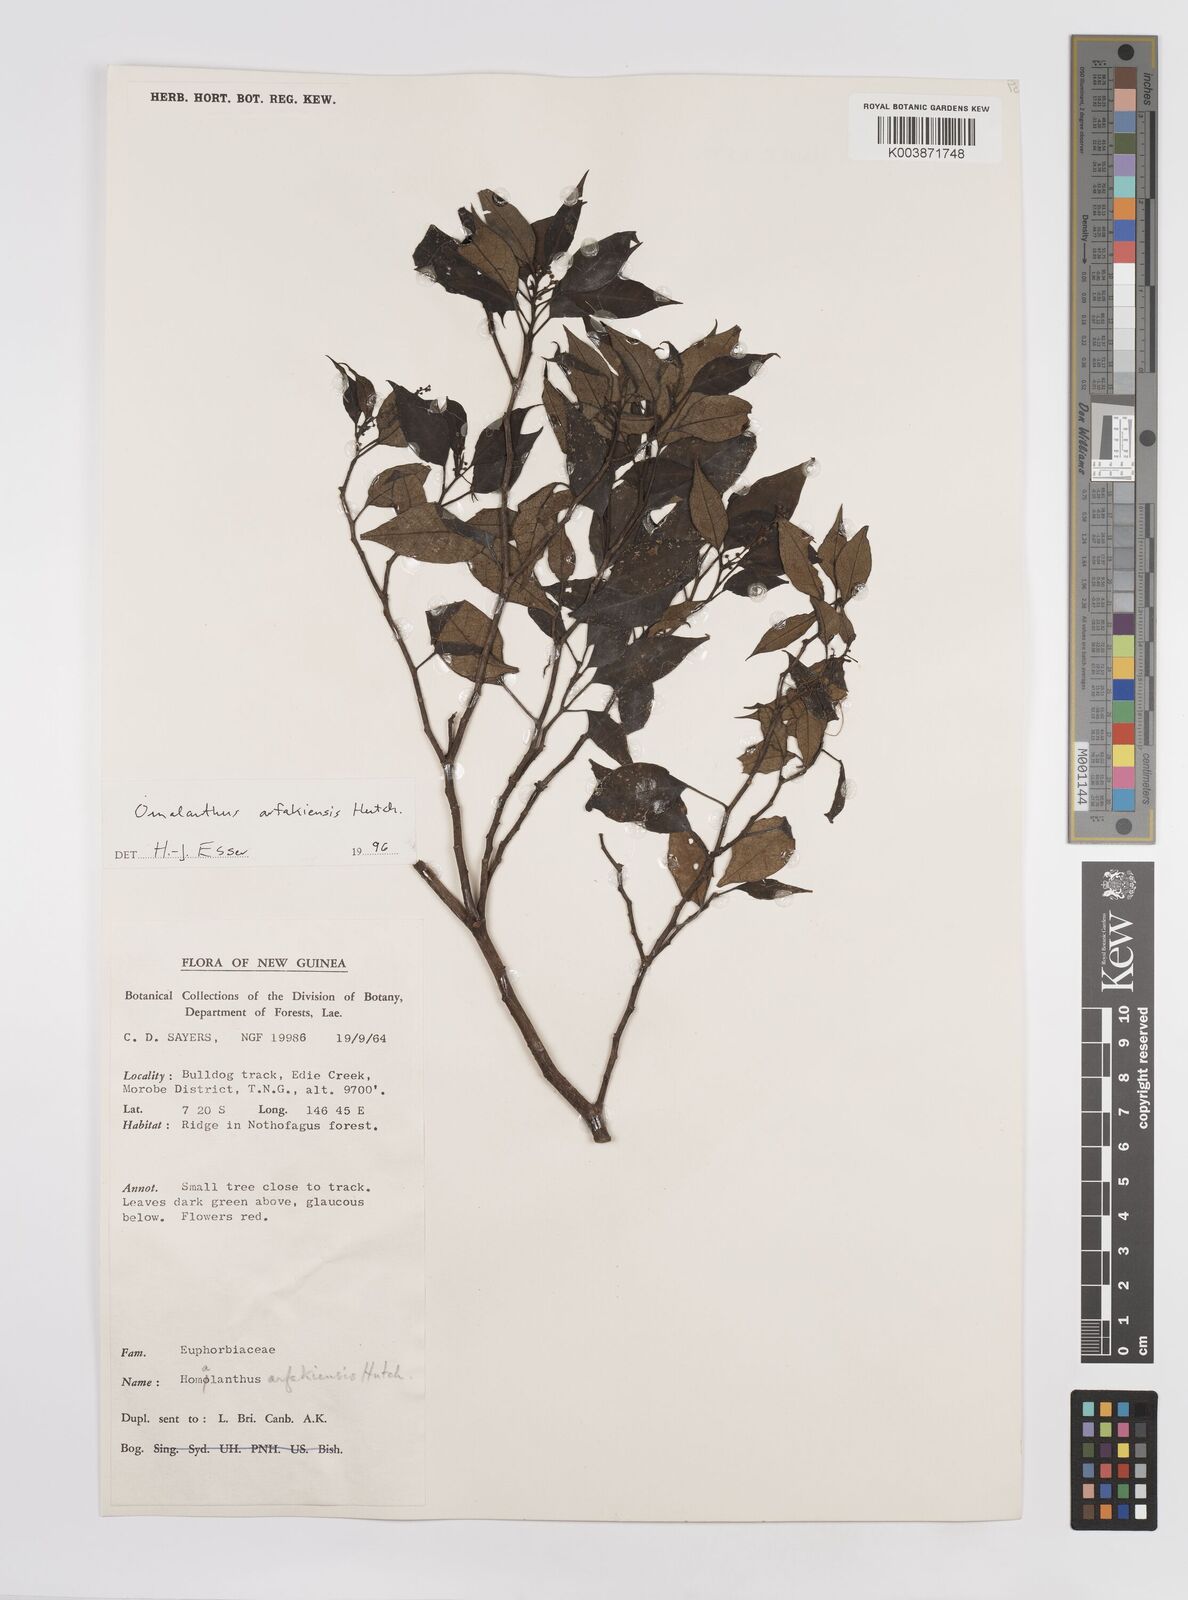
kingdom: Plantae
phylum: Tracheophyta
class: Magnoliopsida
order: Malpighiales
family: Euphorbiaceae
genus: Homalanthus
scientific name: Homalanthus arfakiensis
